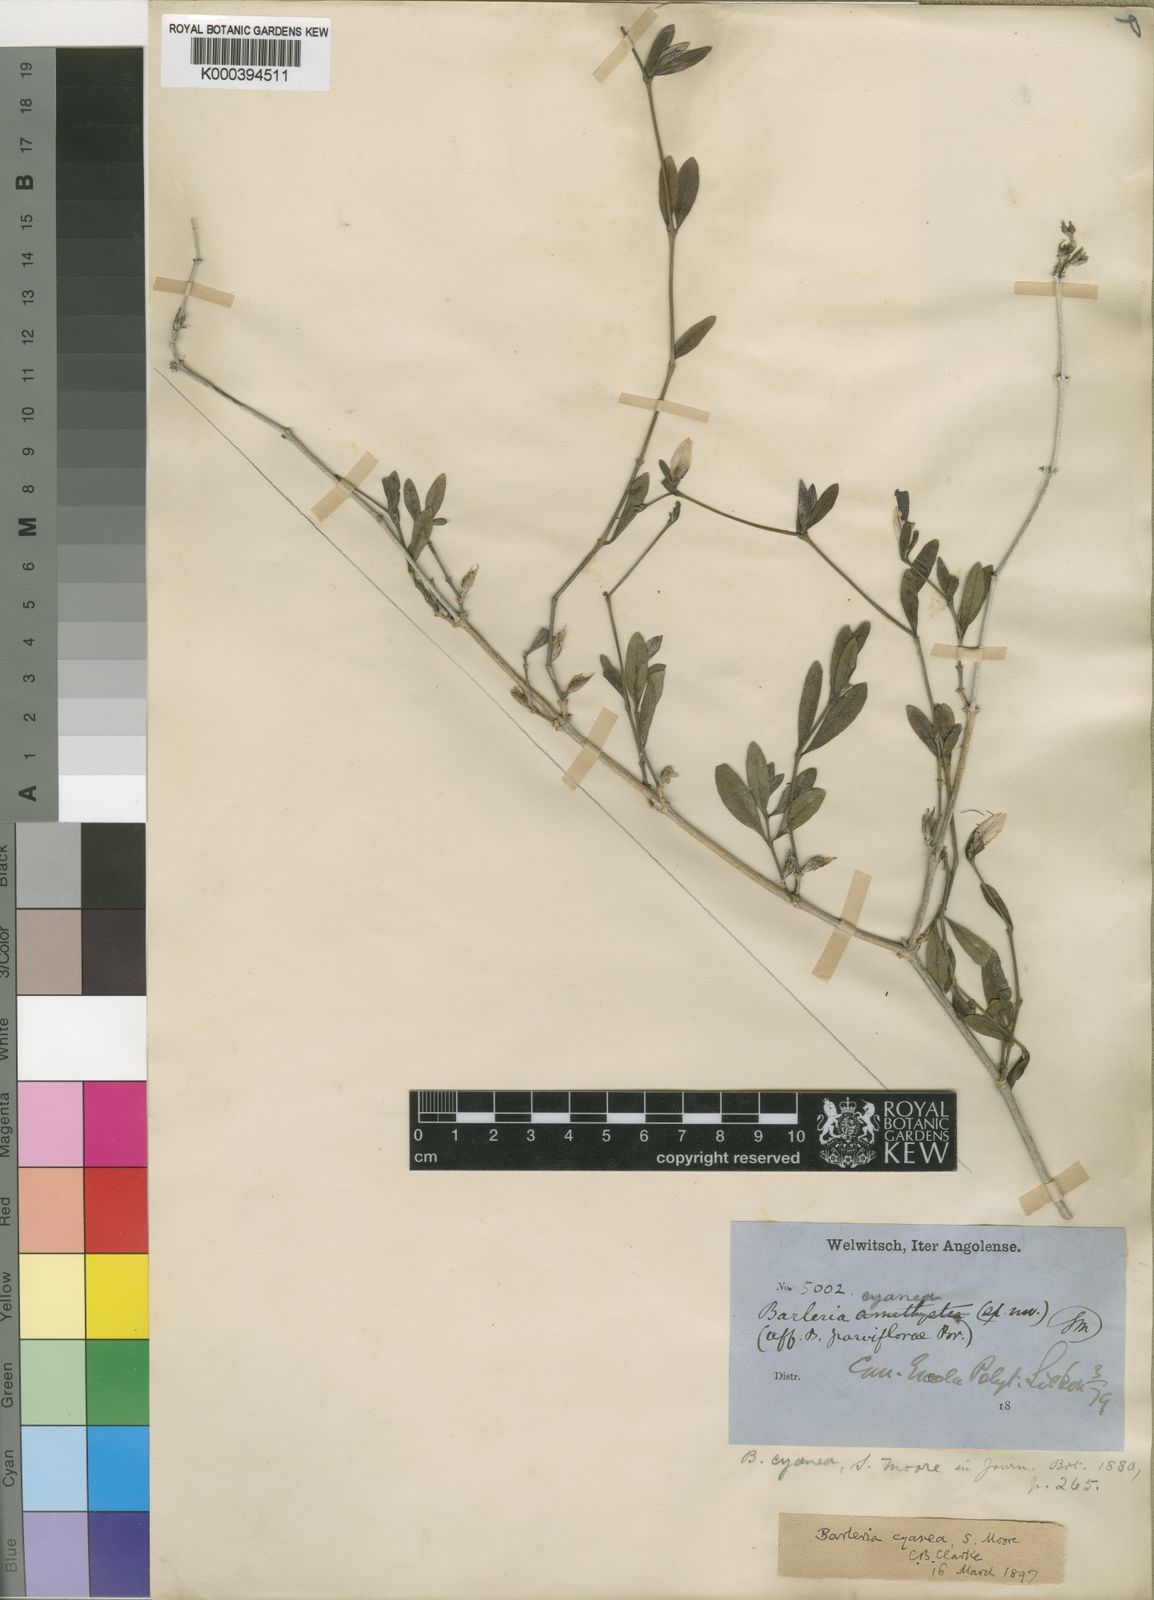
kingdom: Plantae
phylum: Tracheophyta
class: Magnoliopsida
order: Lamiales
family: Acanthaceae
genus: Barleria
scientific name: Barleria cyanea
